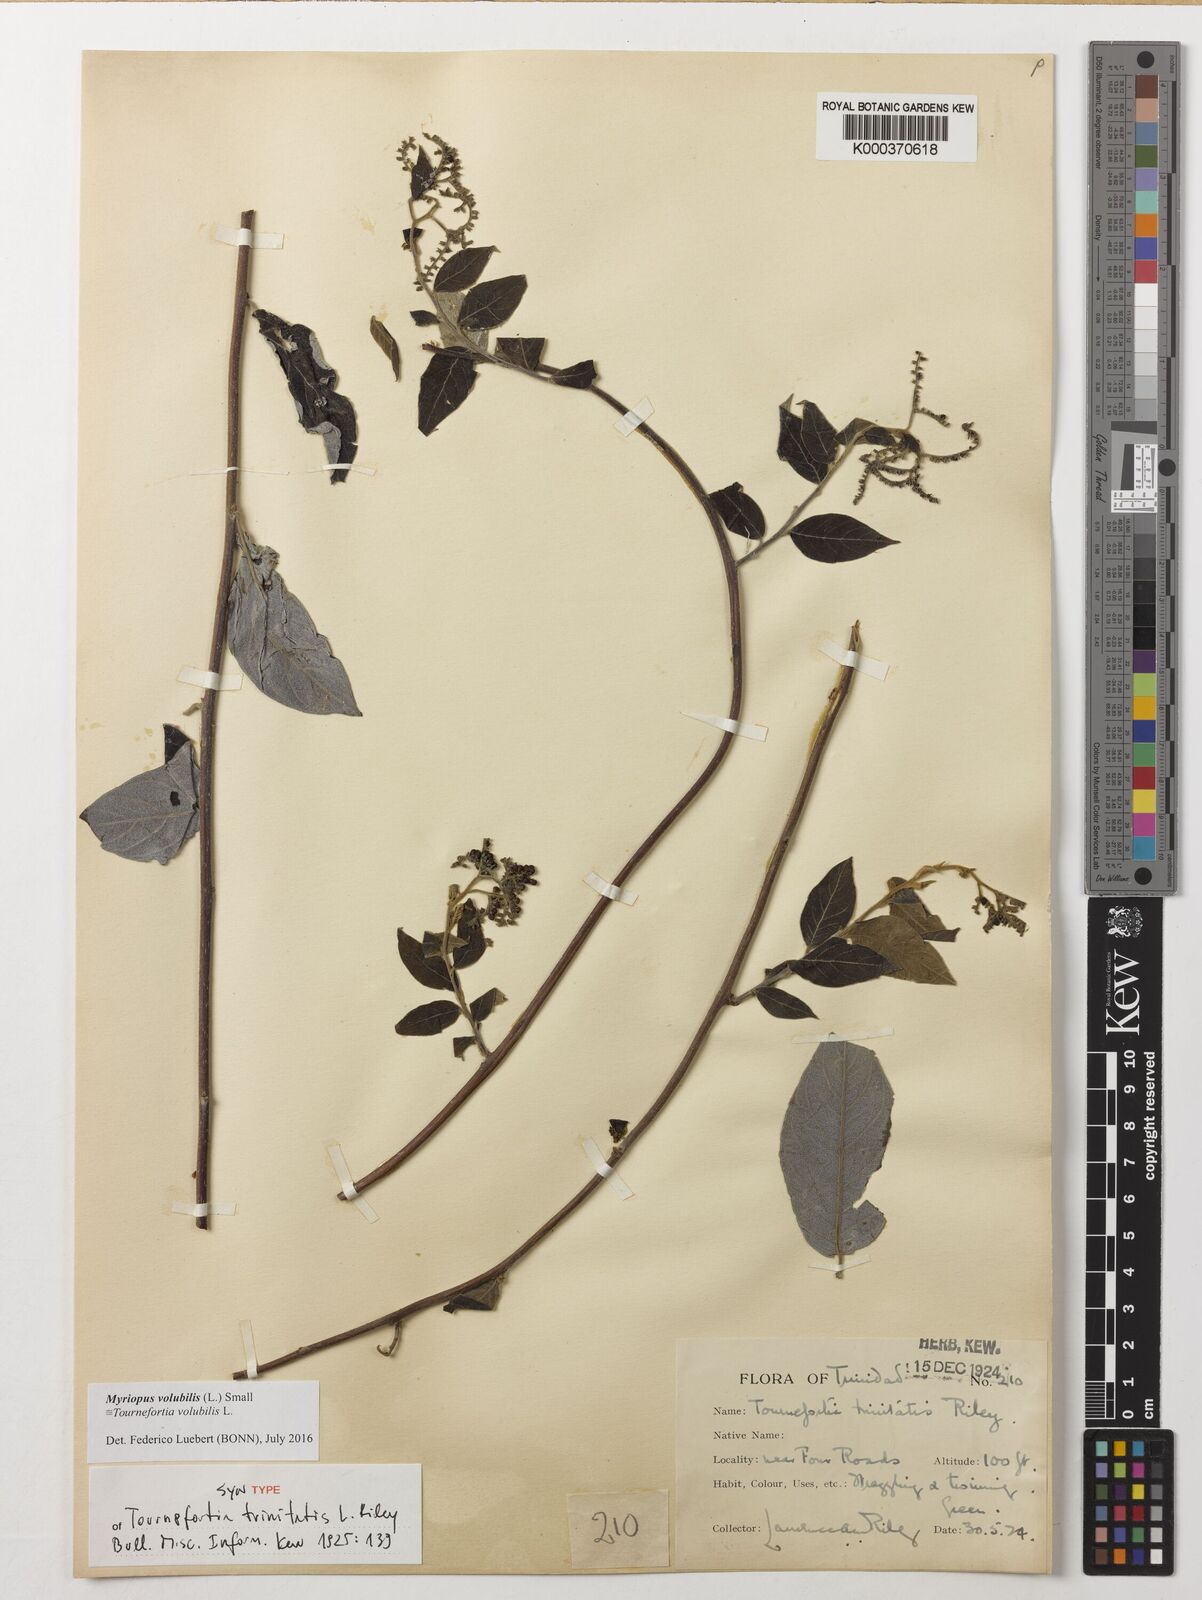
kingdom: Plantae
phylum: Tracheophyta
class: Magnoliopsida
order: Boraginales
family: Heliotropiaceae
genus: Myriopus
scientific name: Myriopus volubilis
